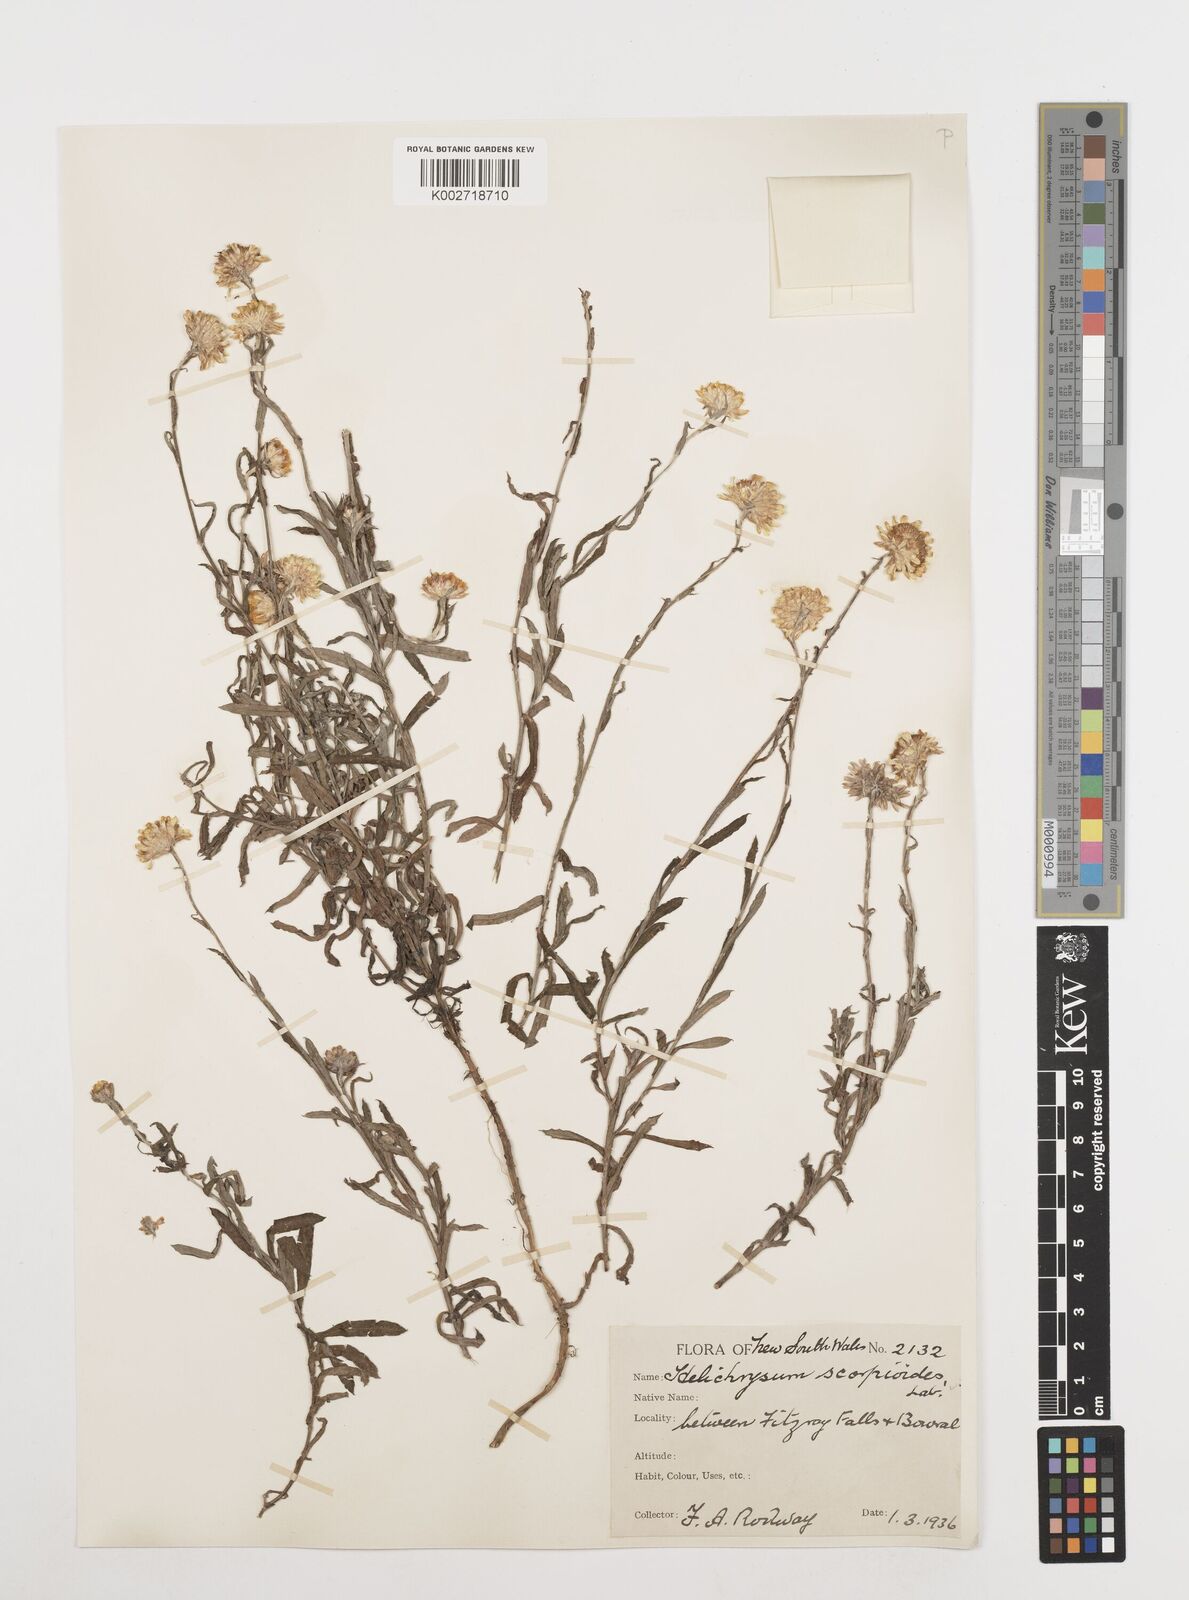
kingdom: Plantae
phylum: Tracheophyta
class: Magnoliopsida
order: Asterales
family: Asteraceae
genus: Coronidium
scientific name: Coronidium scorpioides
